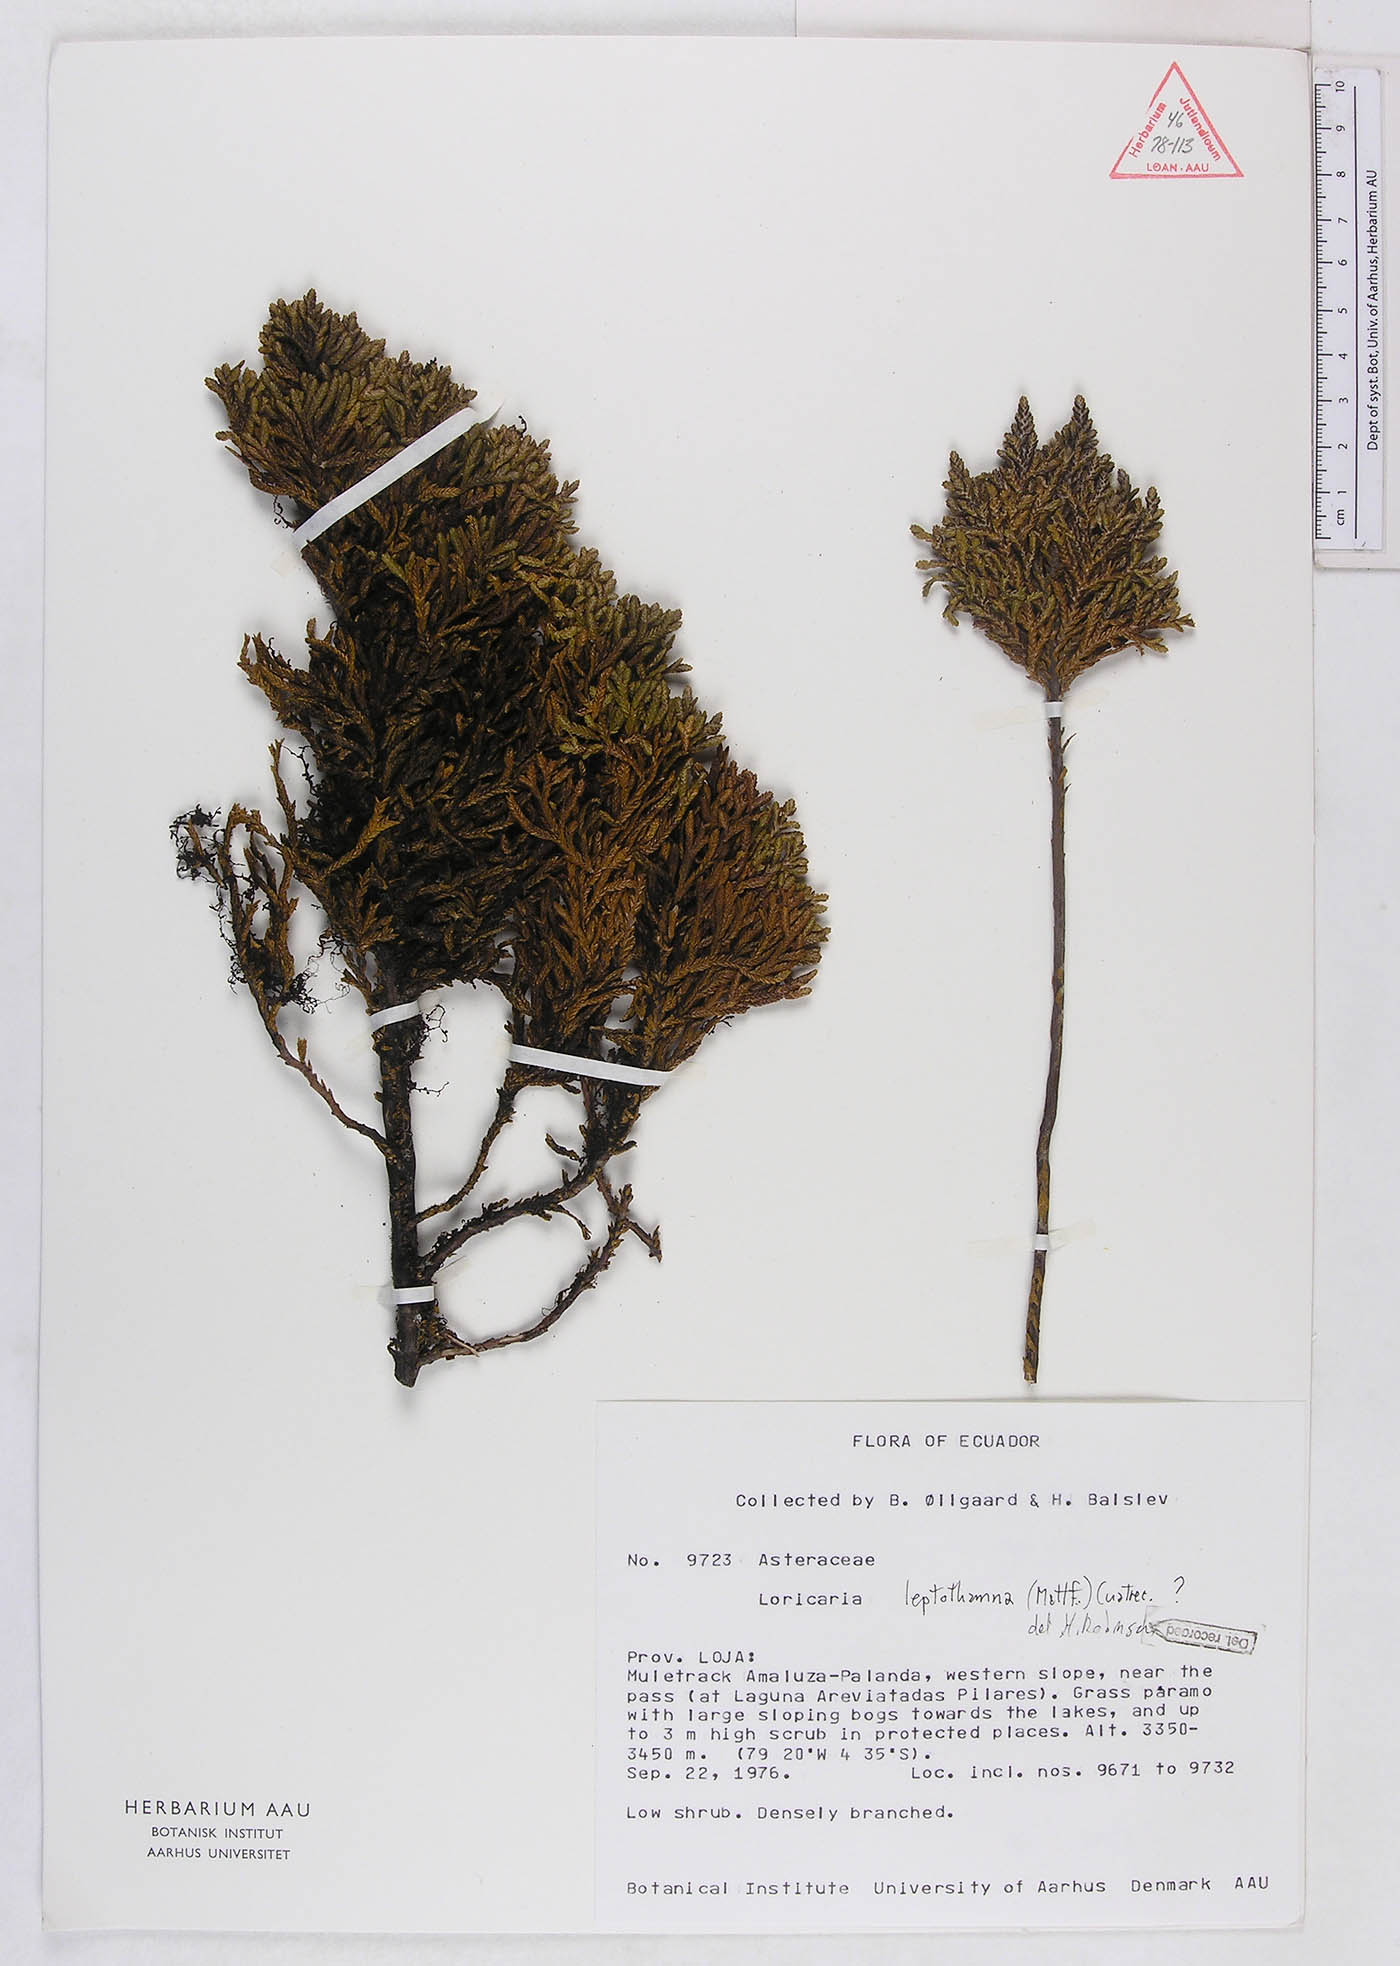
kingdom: Plantae
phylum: Tracheophyta
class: Magnoliopsida
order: Asterales
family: Asteraceae
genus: Andicolea
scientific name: Andicolea leptothamna
